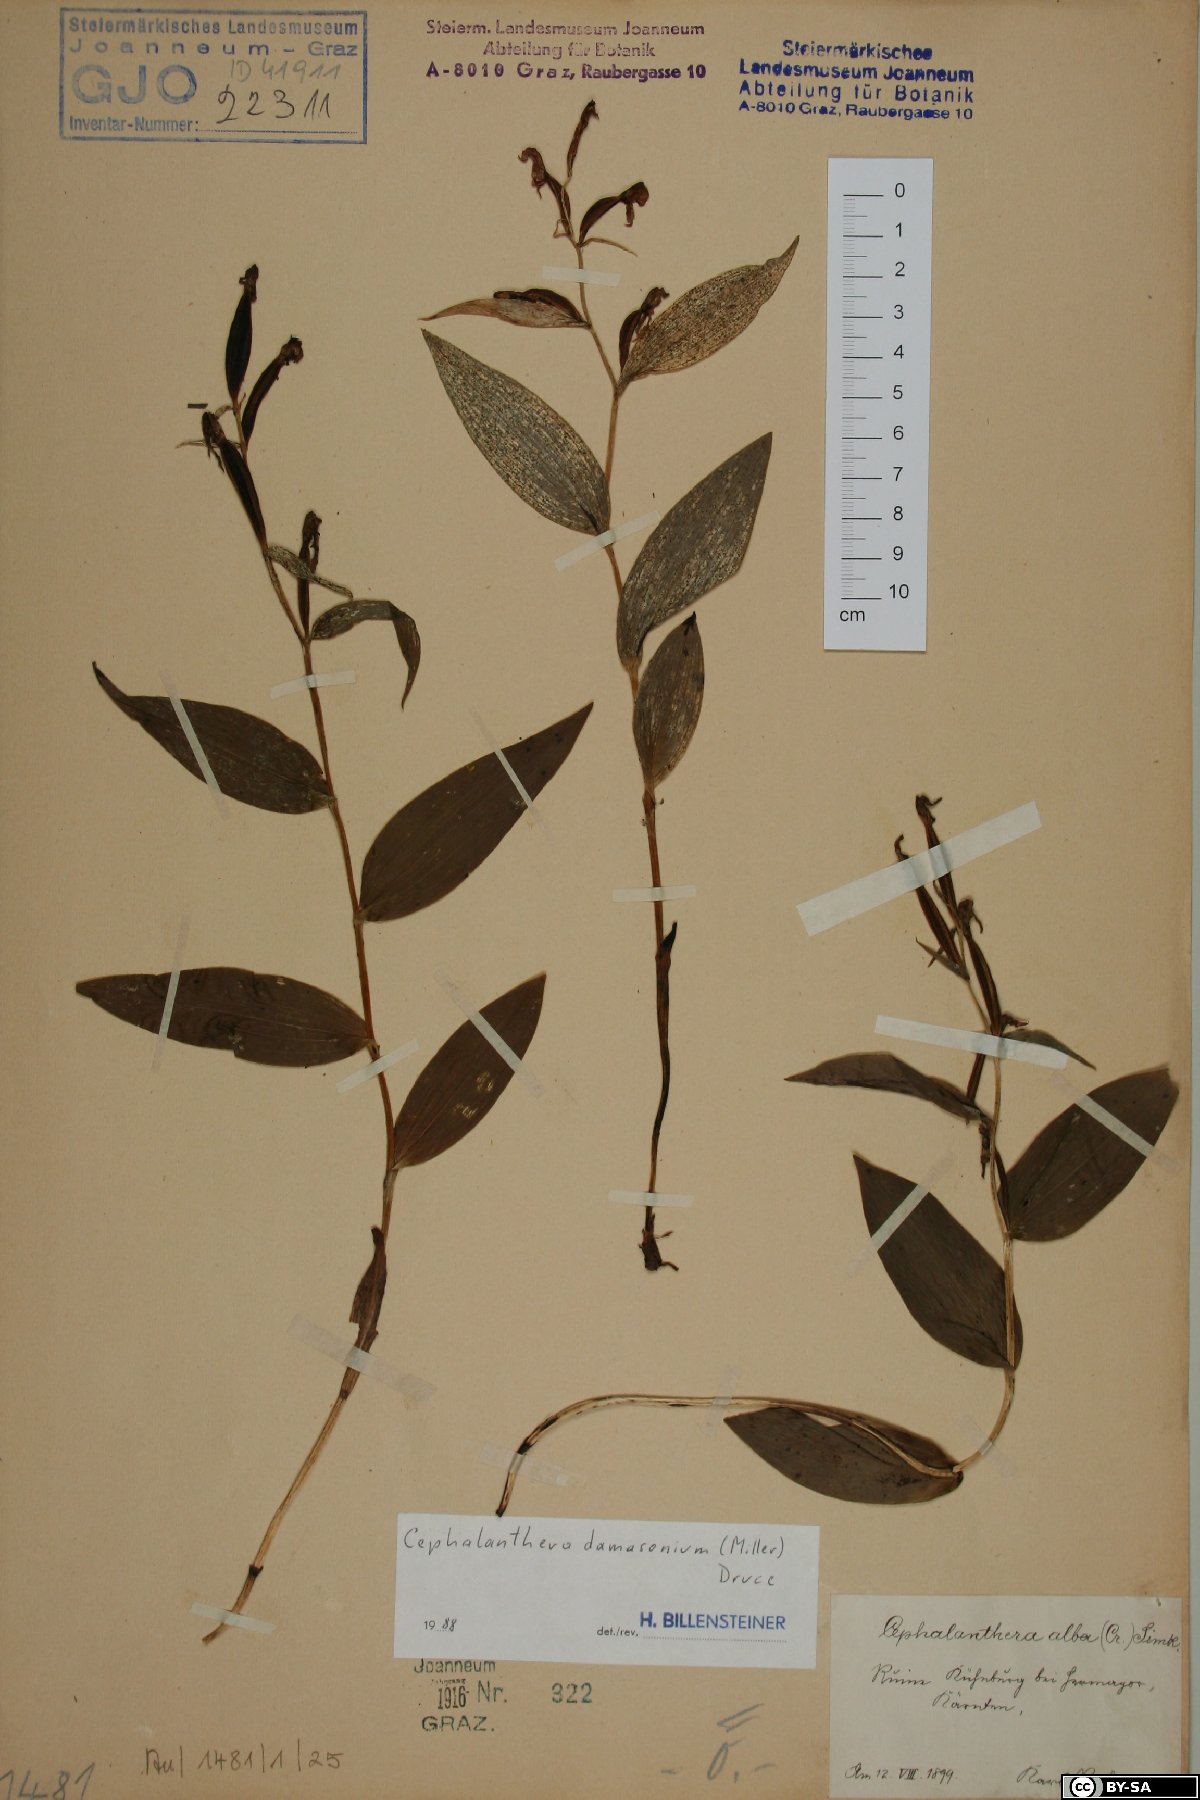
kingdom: Plantae
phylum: Tracheophyta
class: Liliopsida
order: Asparagales
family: Orchidaceae
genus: Cephalanthera
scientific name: Cephalanthera damasonium
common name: White helleborine
